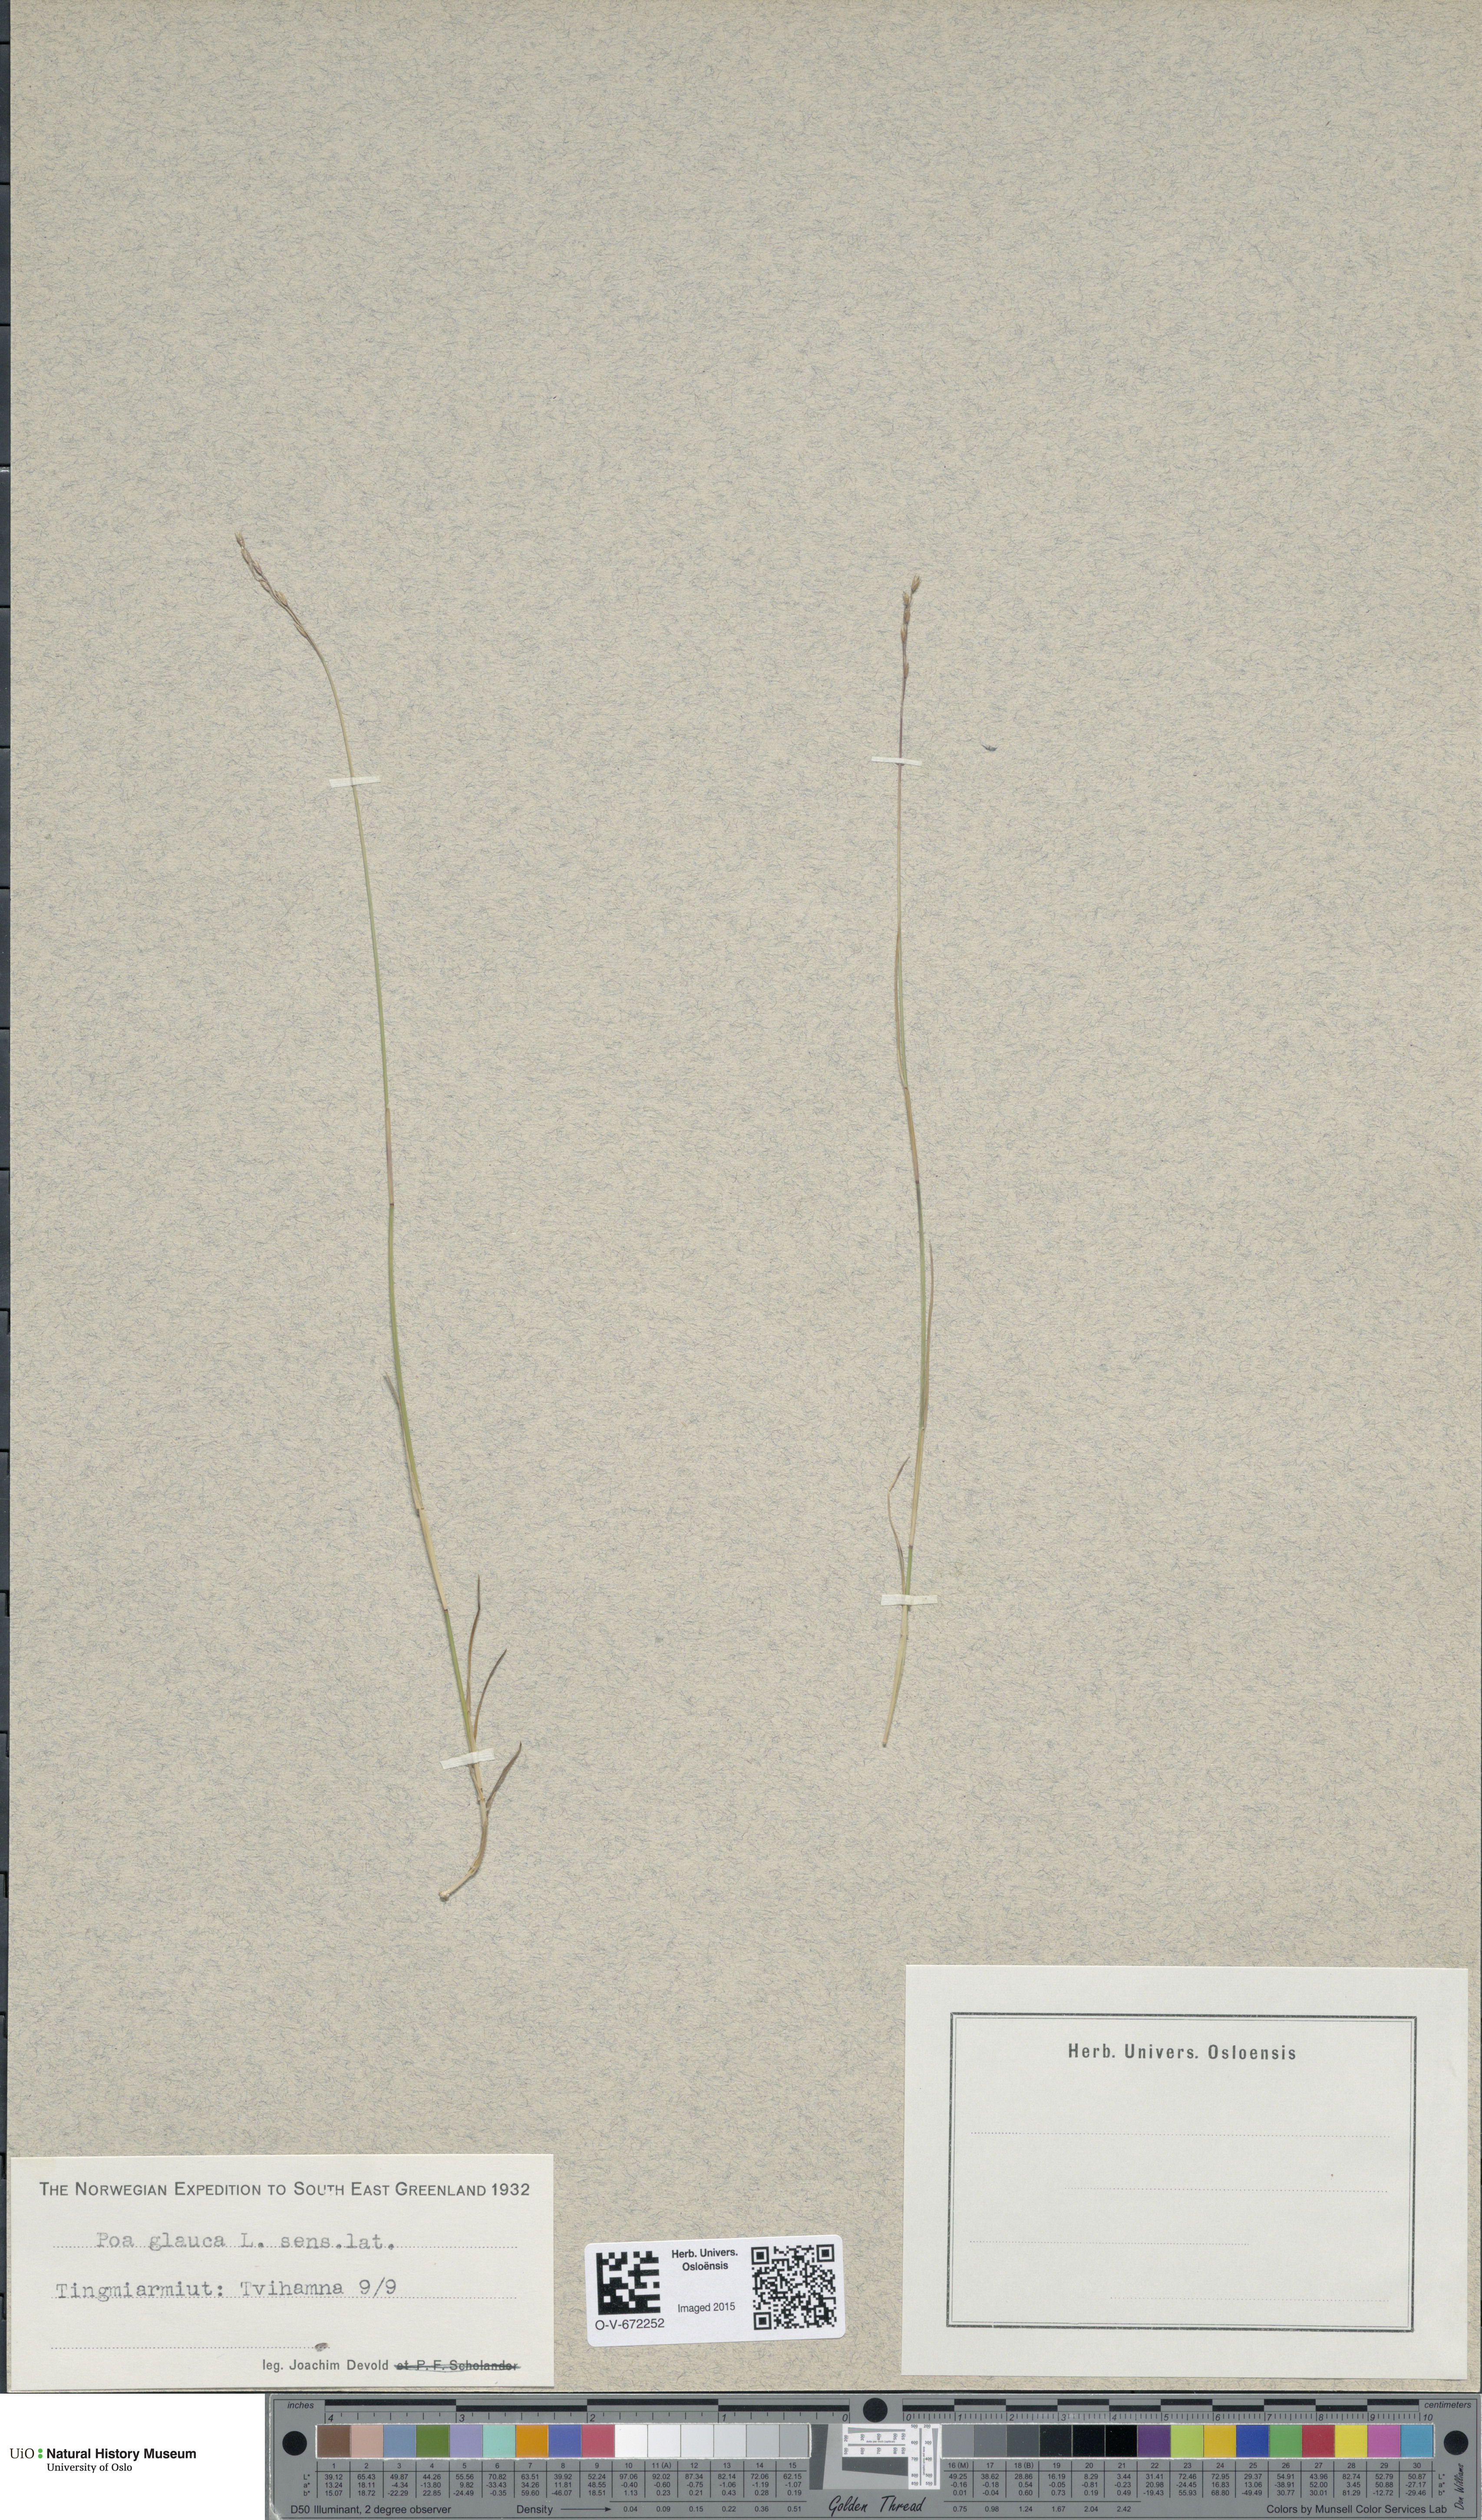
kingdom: Plantae
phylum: Tracheophyta
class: Liliopsida
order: Poales
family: Poaceae
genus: Poa
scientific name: Poa glauca
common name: Glaucous bluegrass
